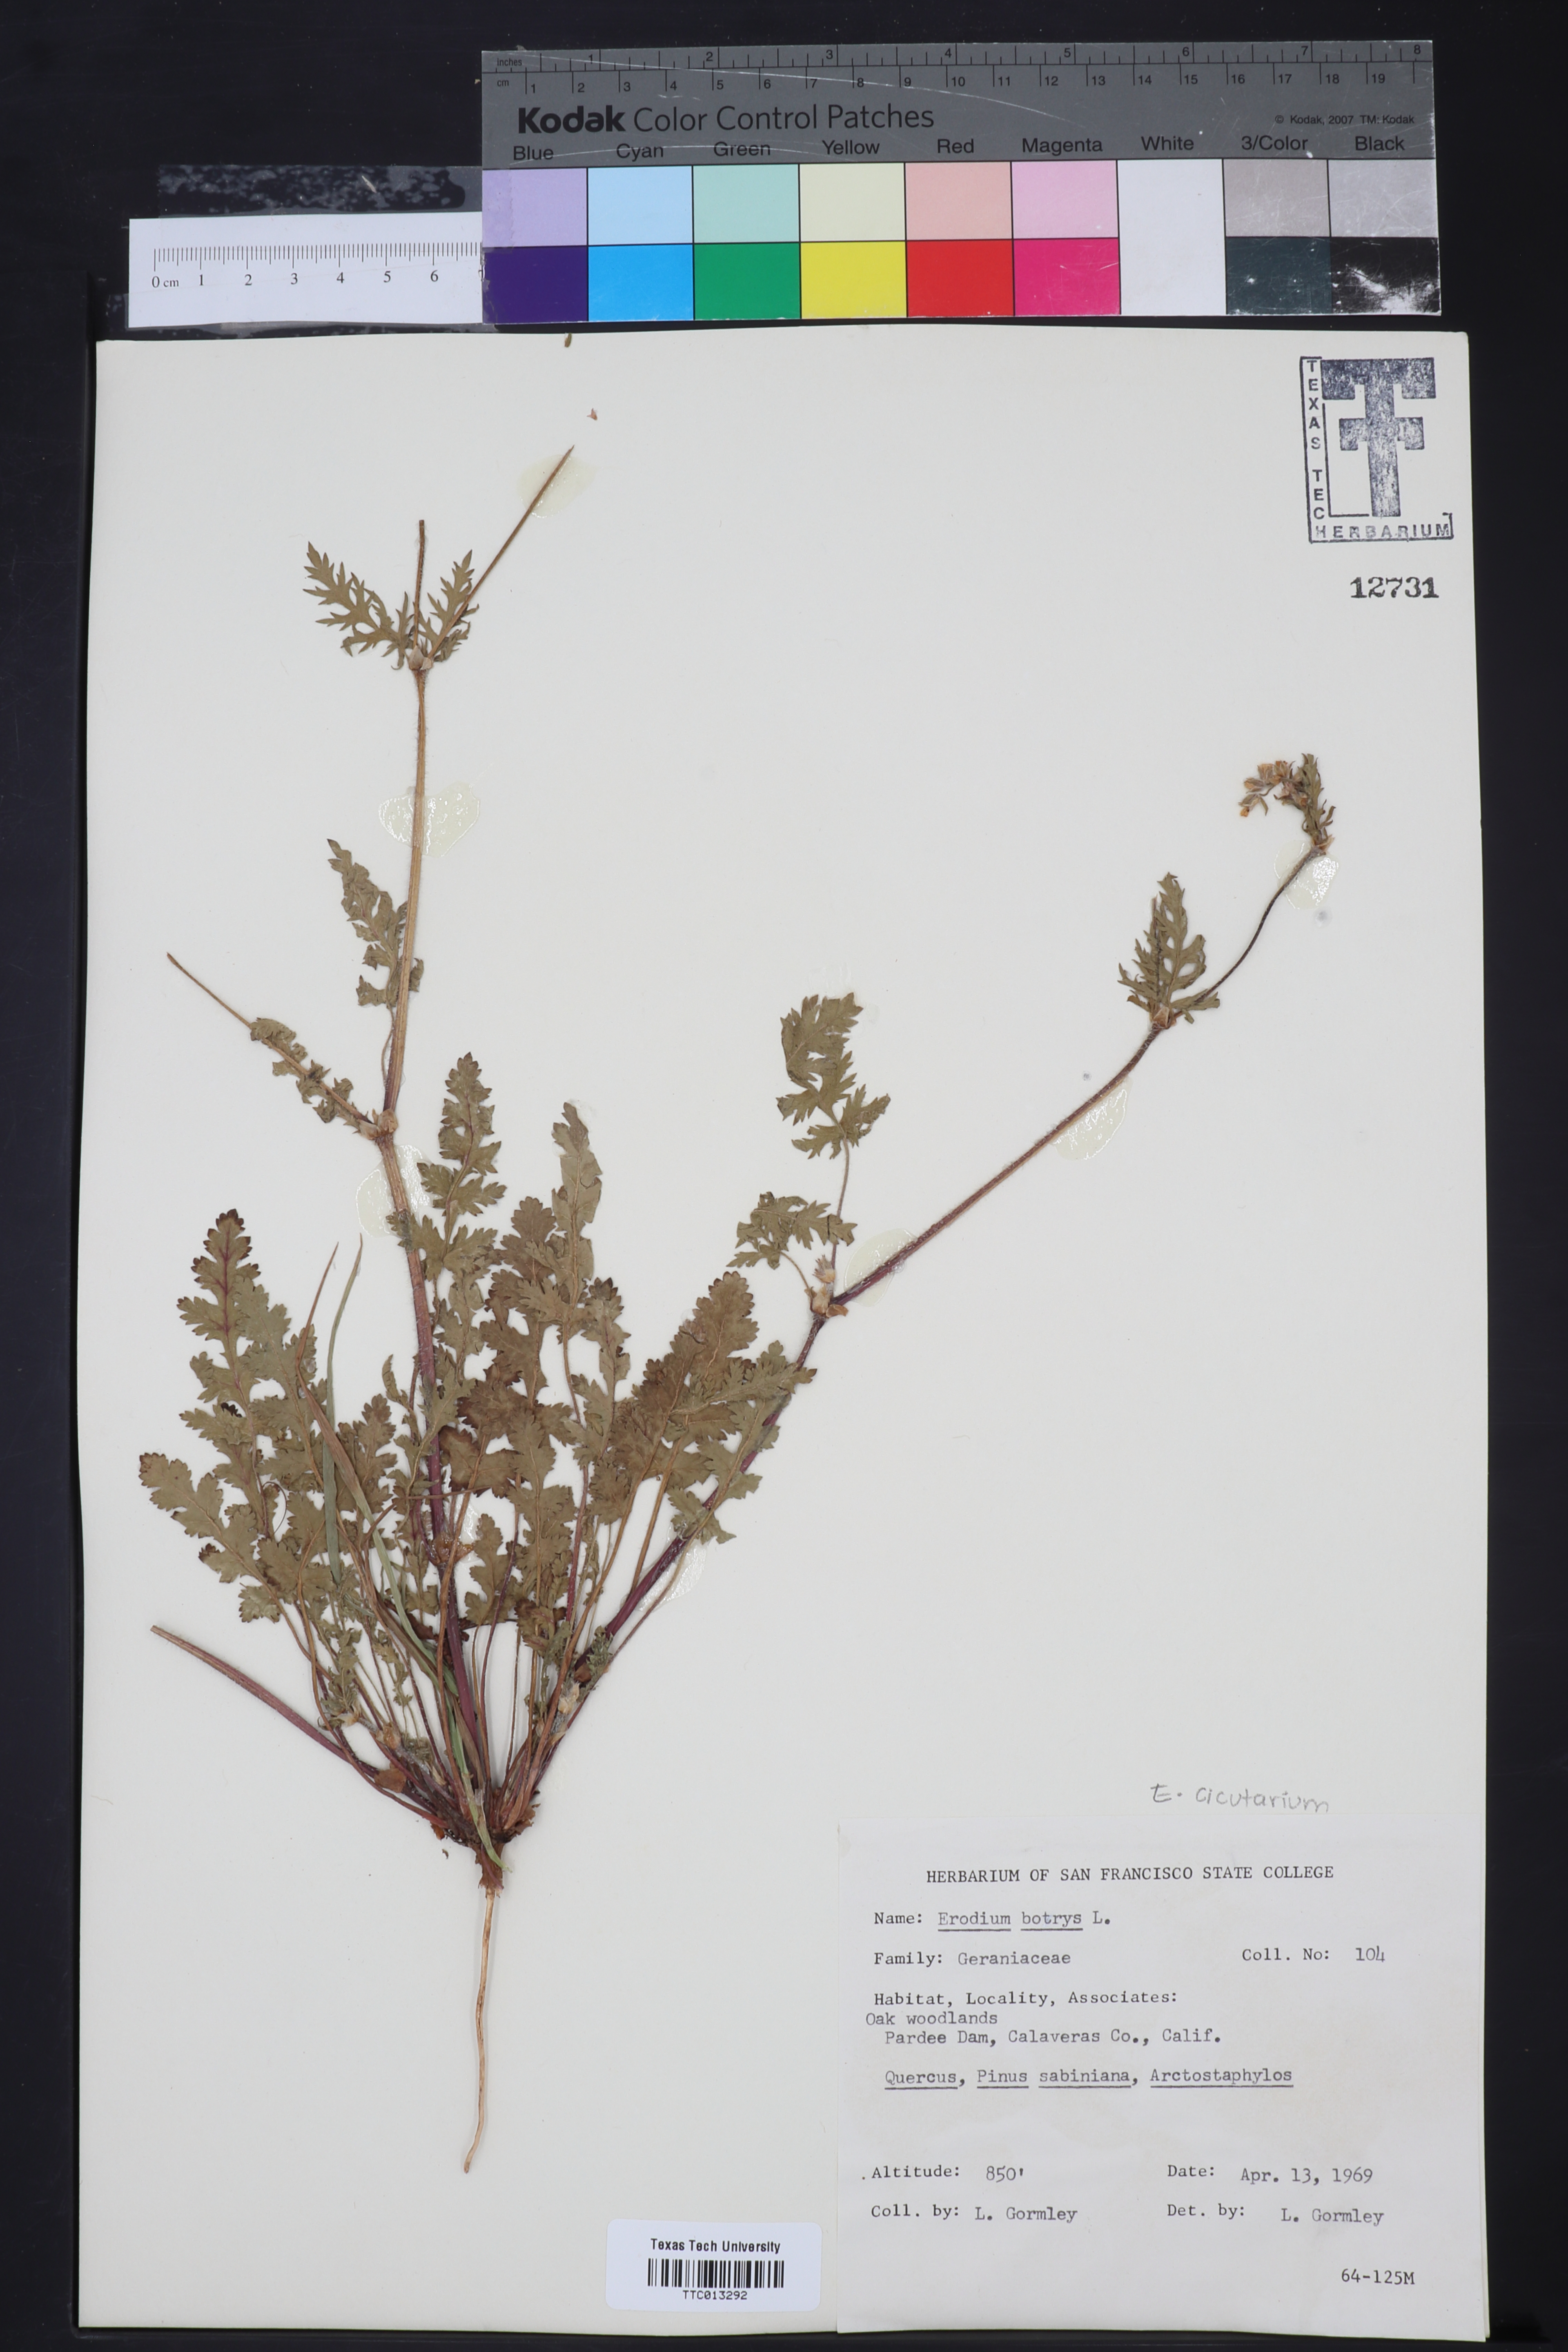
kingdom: Plantae
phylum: Tracheophyta
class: Magnoliopsida
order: Geraniales
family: Geraniaceae
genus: Erodium
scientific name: Erodium oxyrrhynchum
